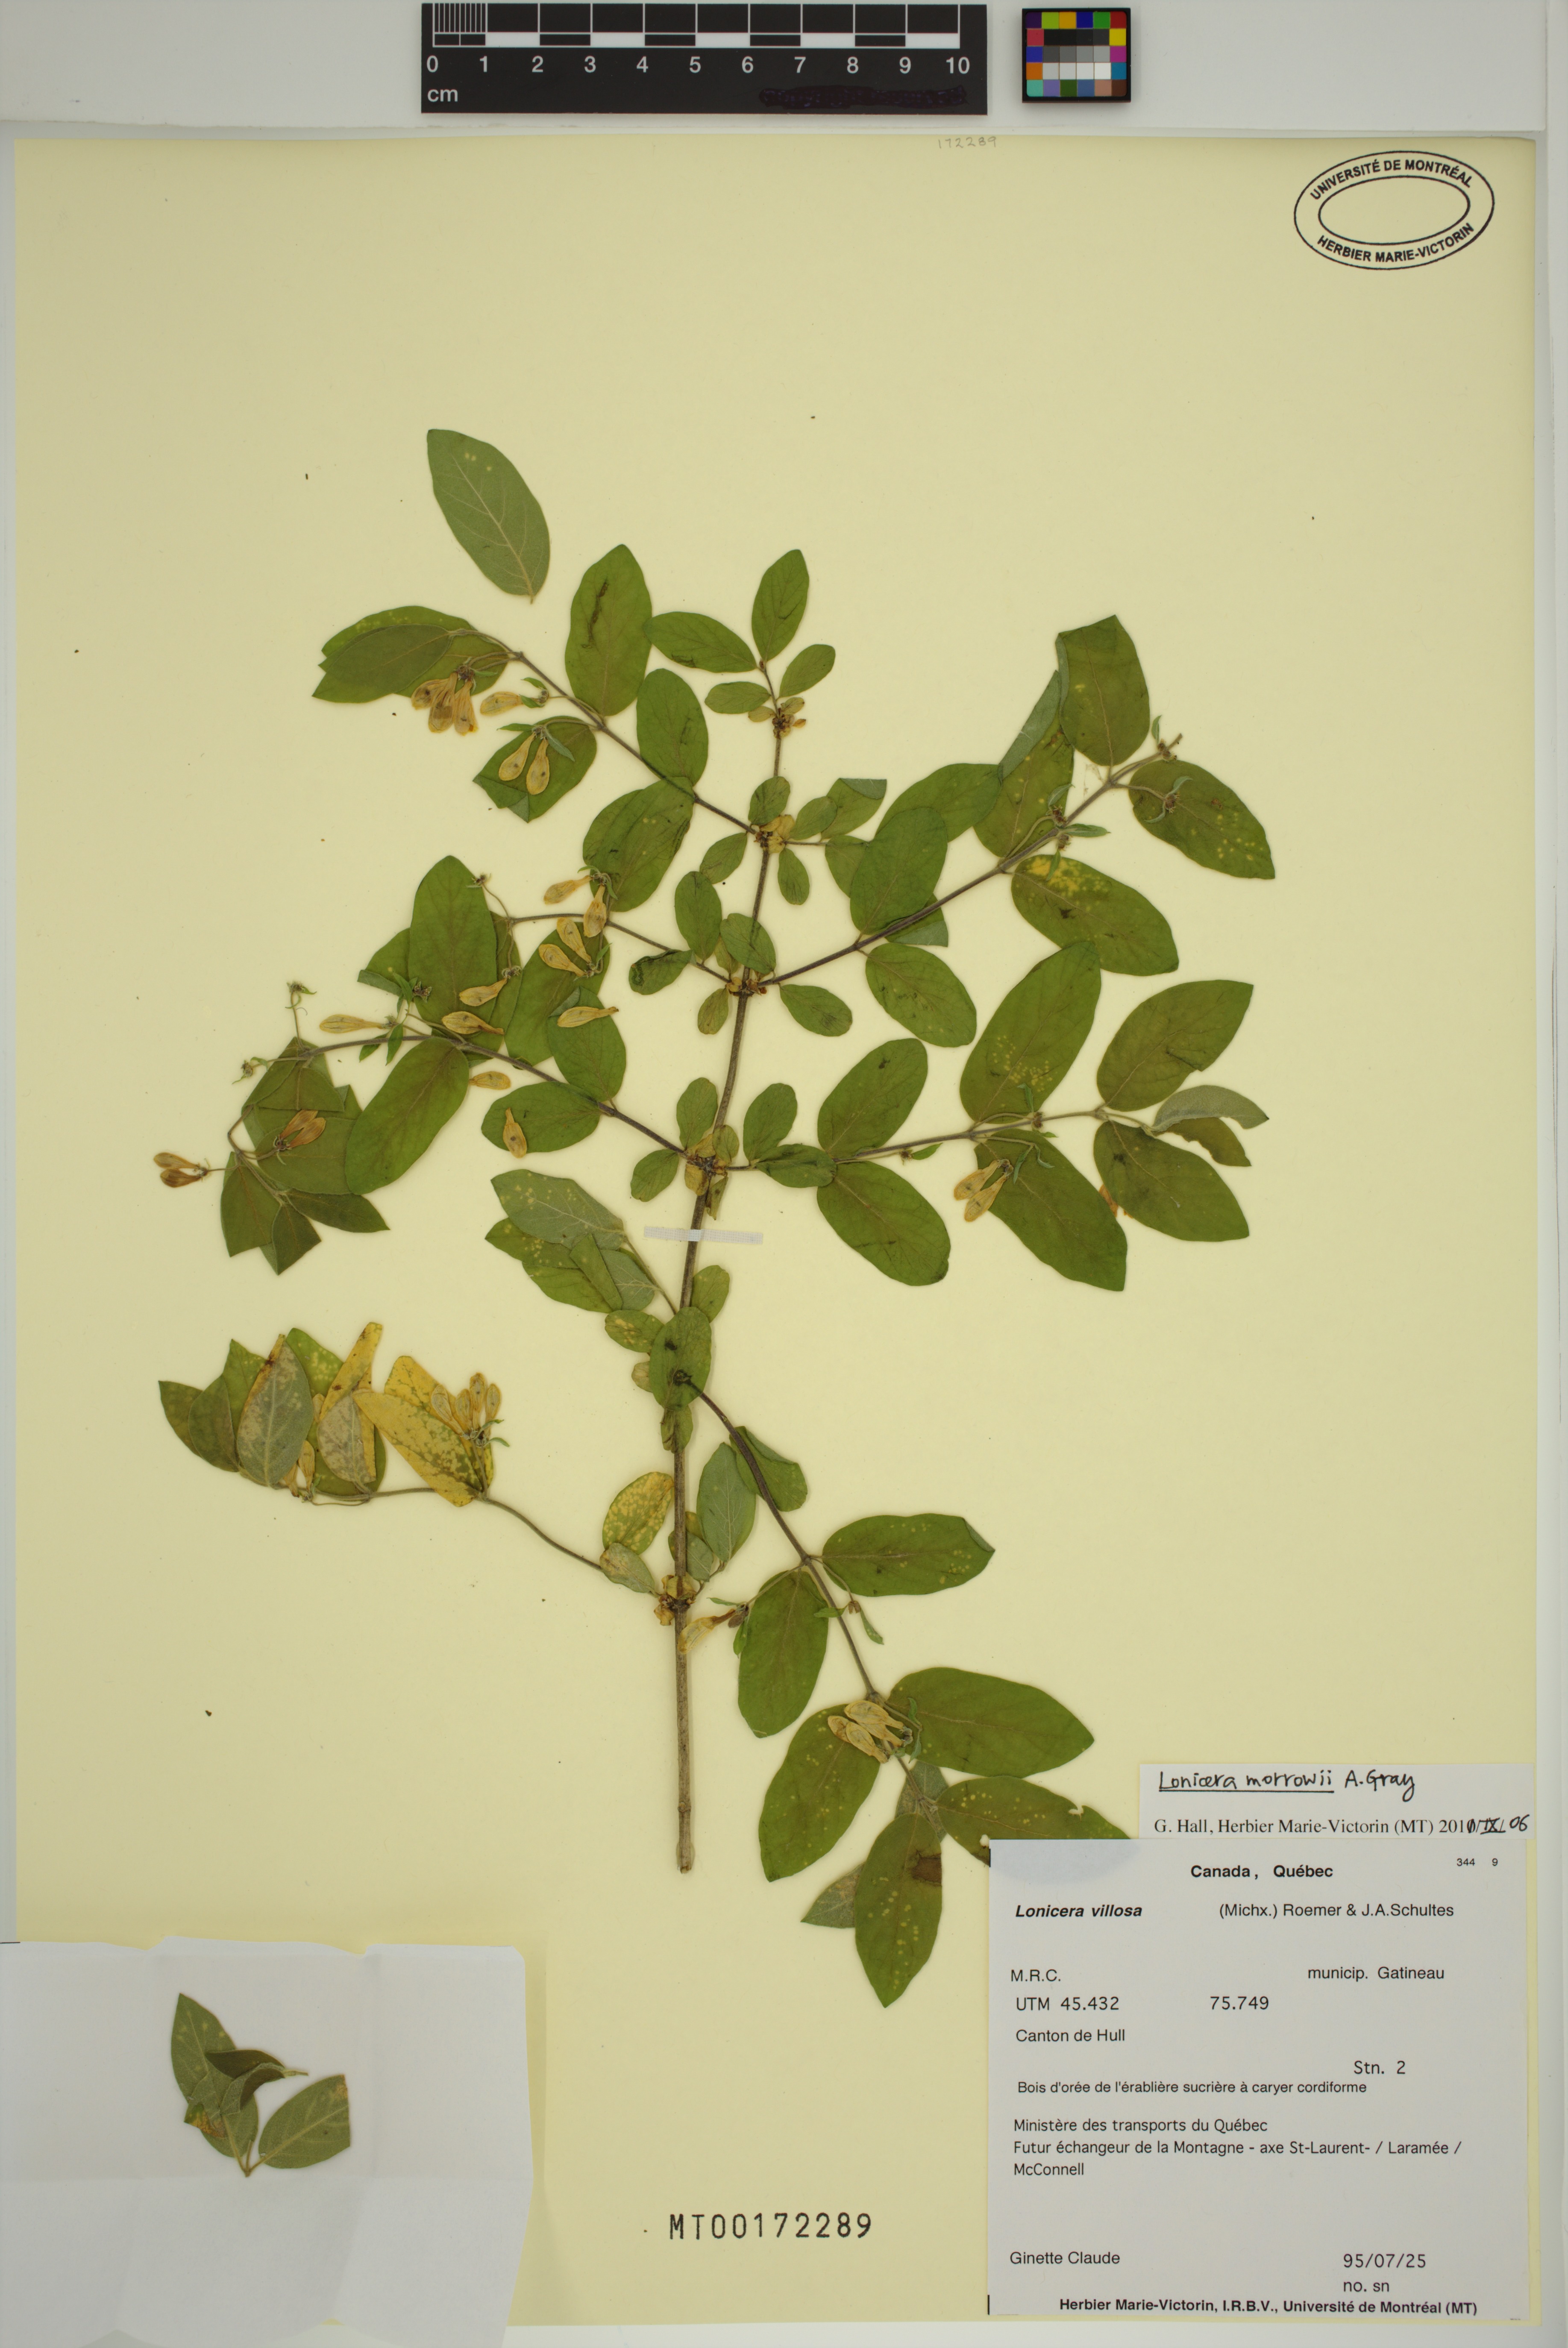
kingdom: Plantae
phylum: Tracheophyta
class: Magnoliopsida
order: Dipsacales
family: Caprifoliaceae
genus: Lonicera
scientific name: Lonicera morrowii
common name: Morrow's honeysuckle
